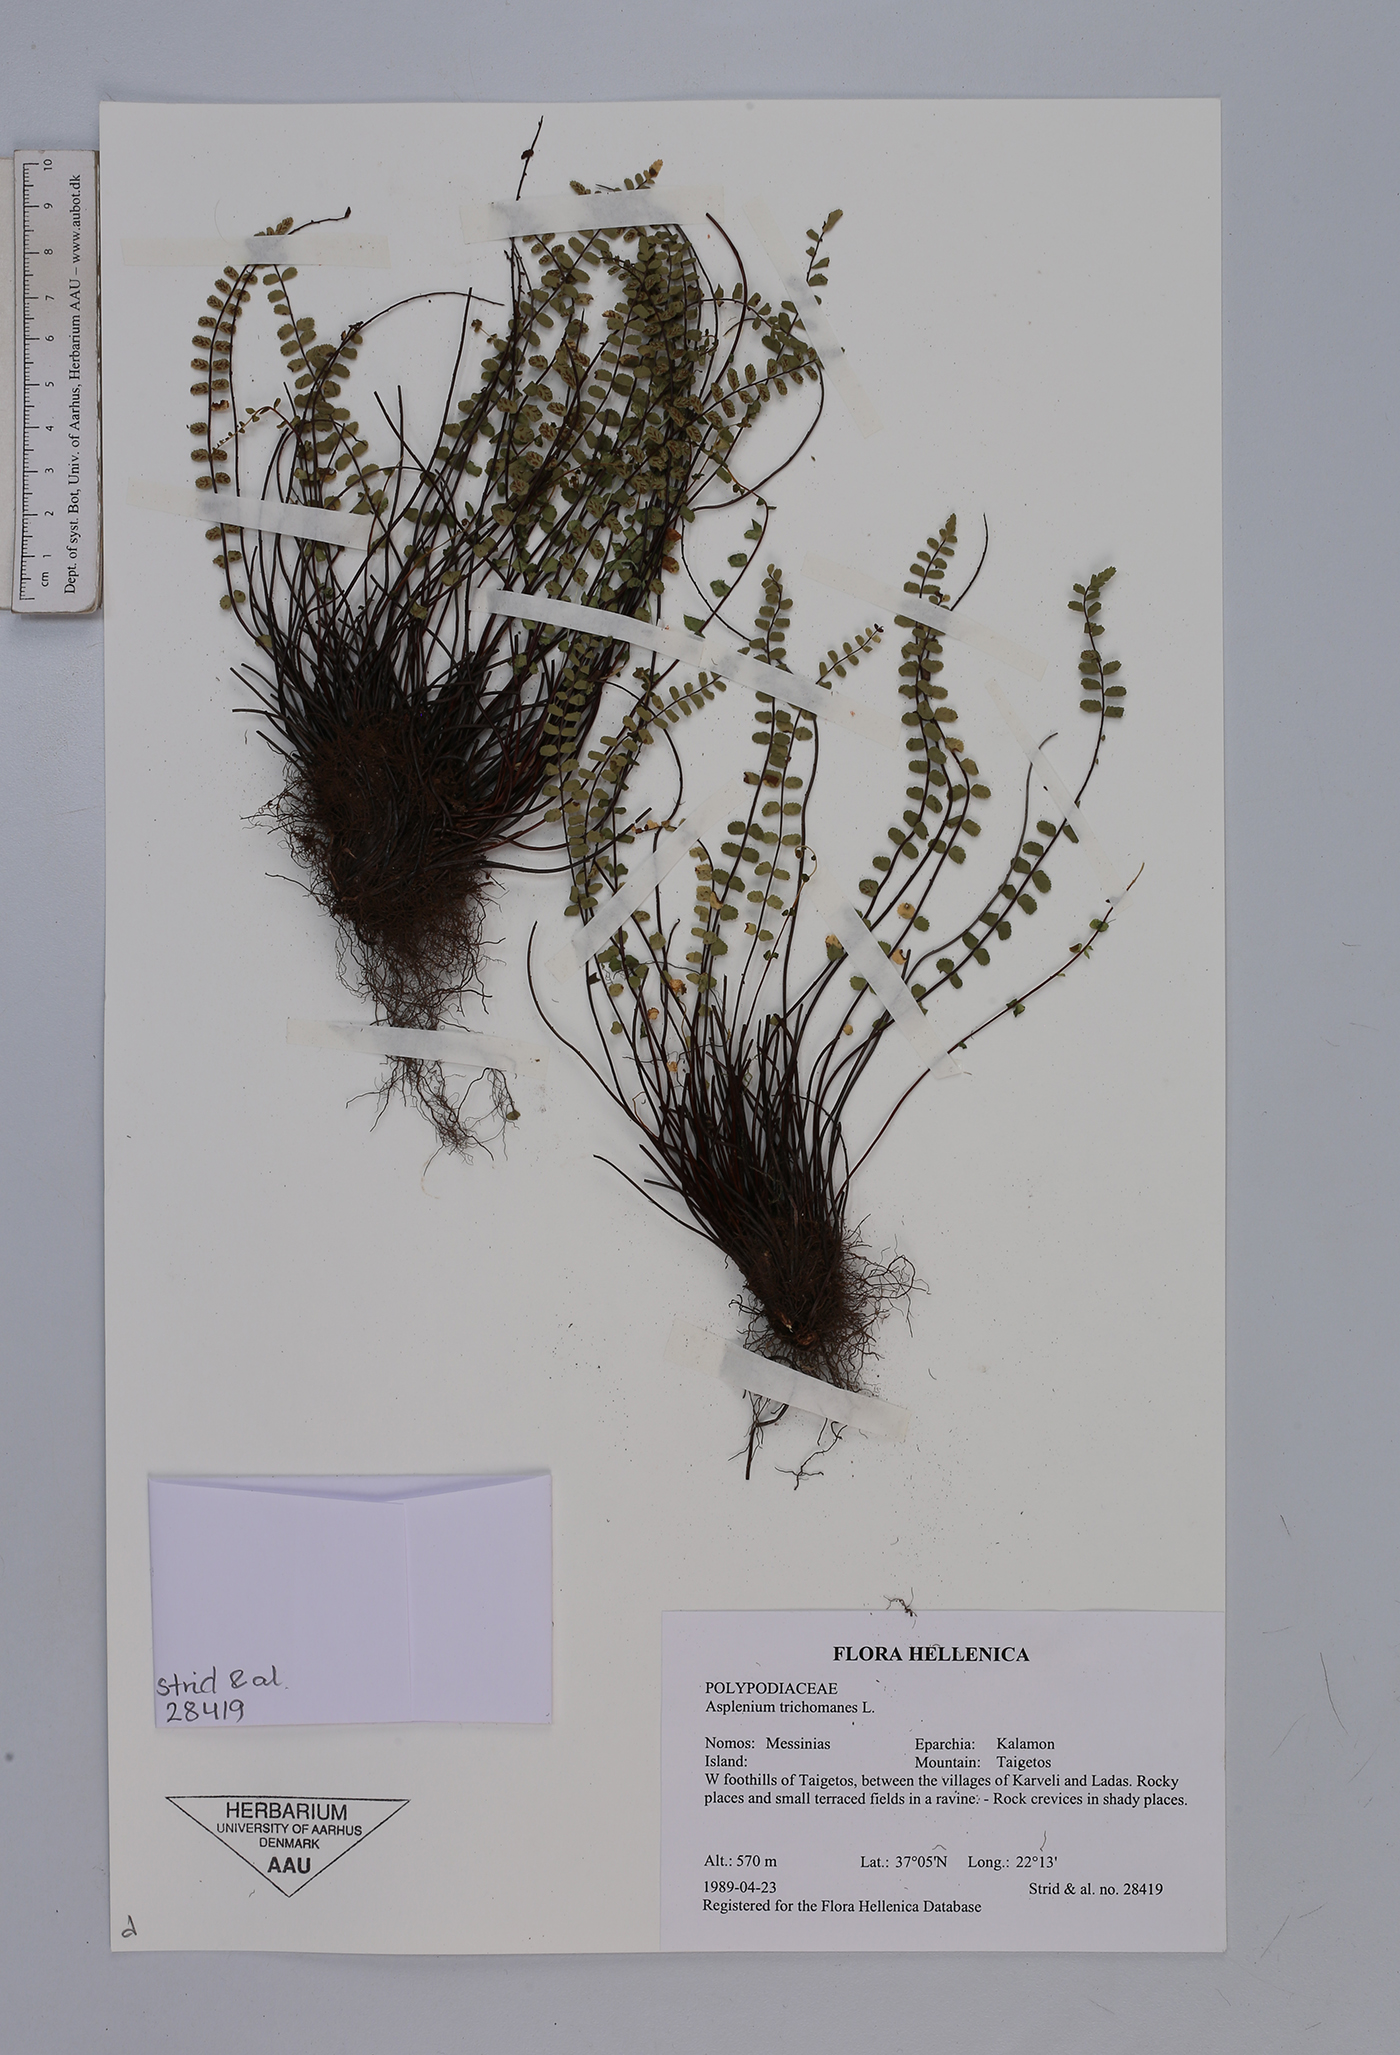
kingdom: Plantae
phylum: Tracheophyta
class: Polypodiopsida
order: Polypodiales
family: Aspleniaceae
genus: Asplenium
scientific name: Asplenium trichomanes
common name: Maidenhair spleenwort
